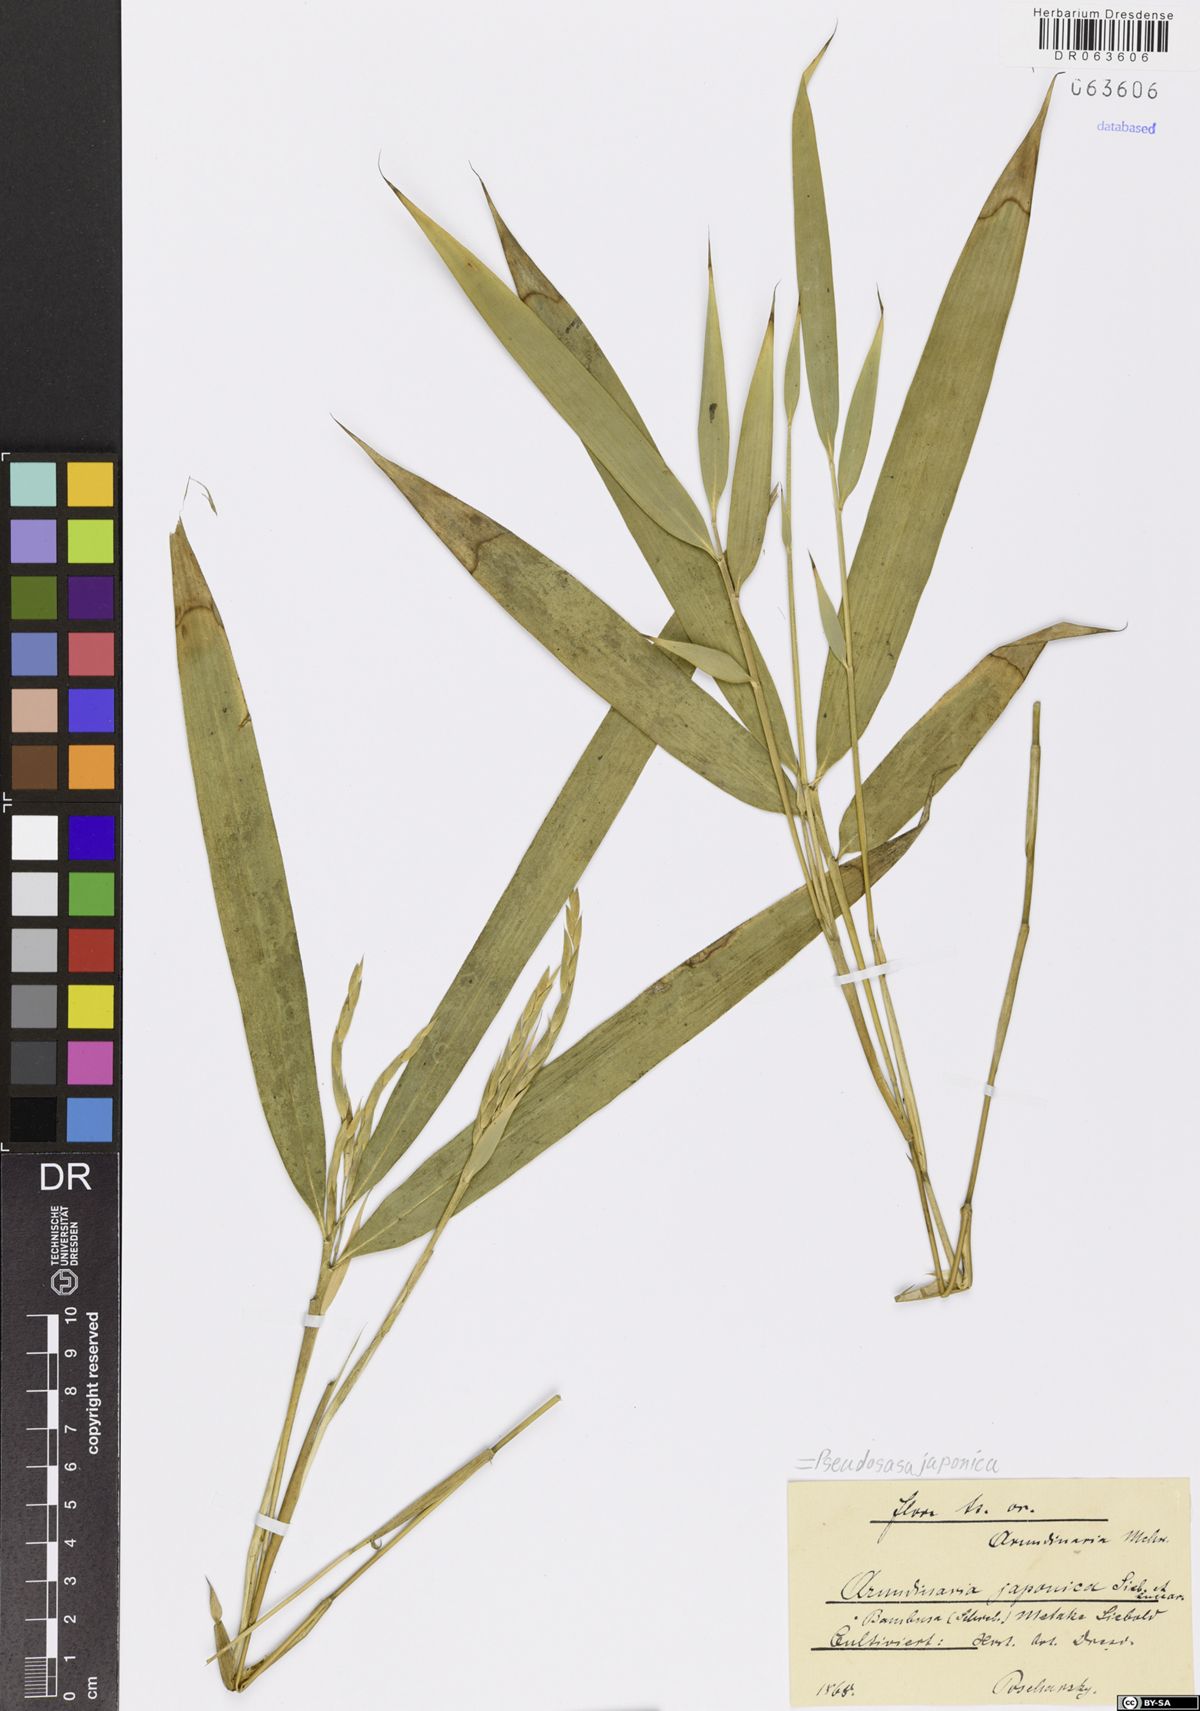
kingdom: Plantae
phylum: Tracheophyta
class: Liliopsida
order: Poales
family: Poaceae
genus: Pseudosasa
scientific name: Pseudosasa japonica
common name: Arrow bamboo
